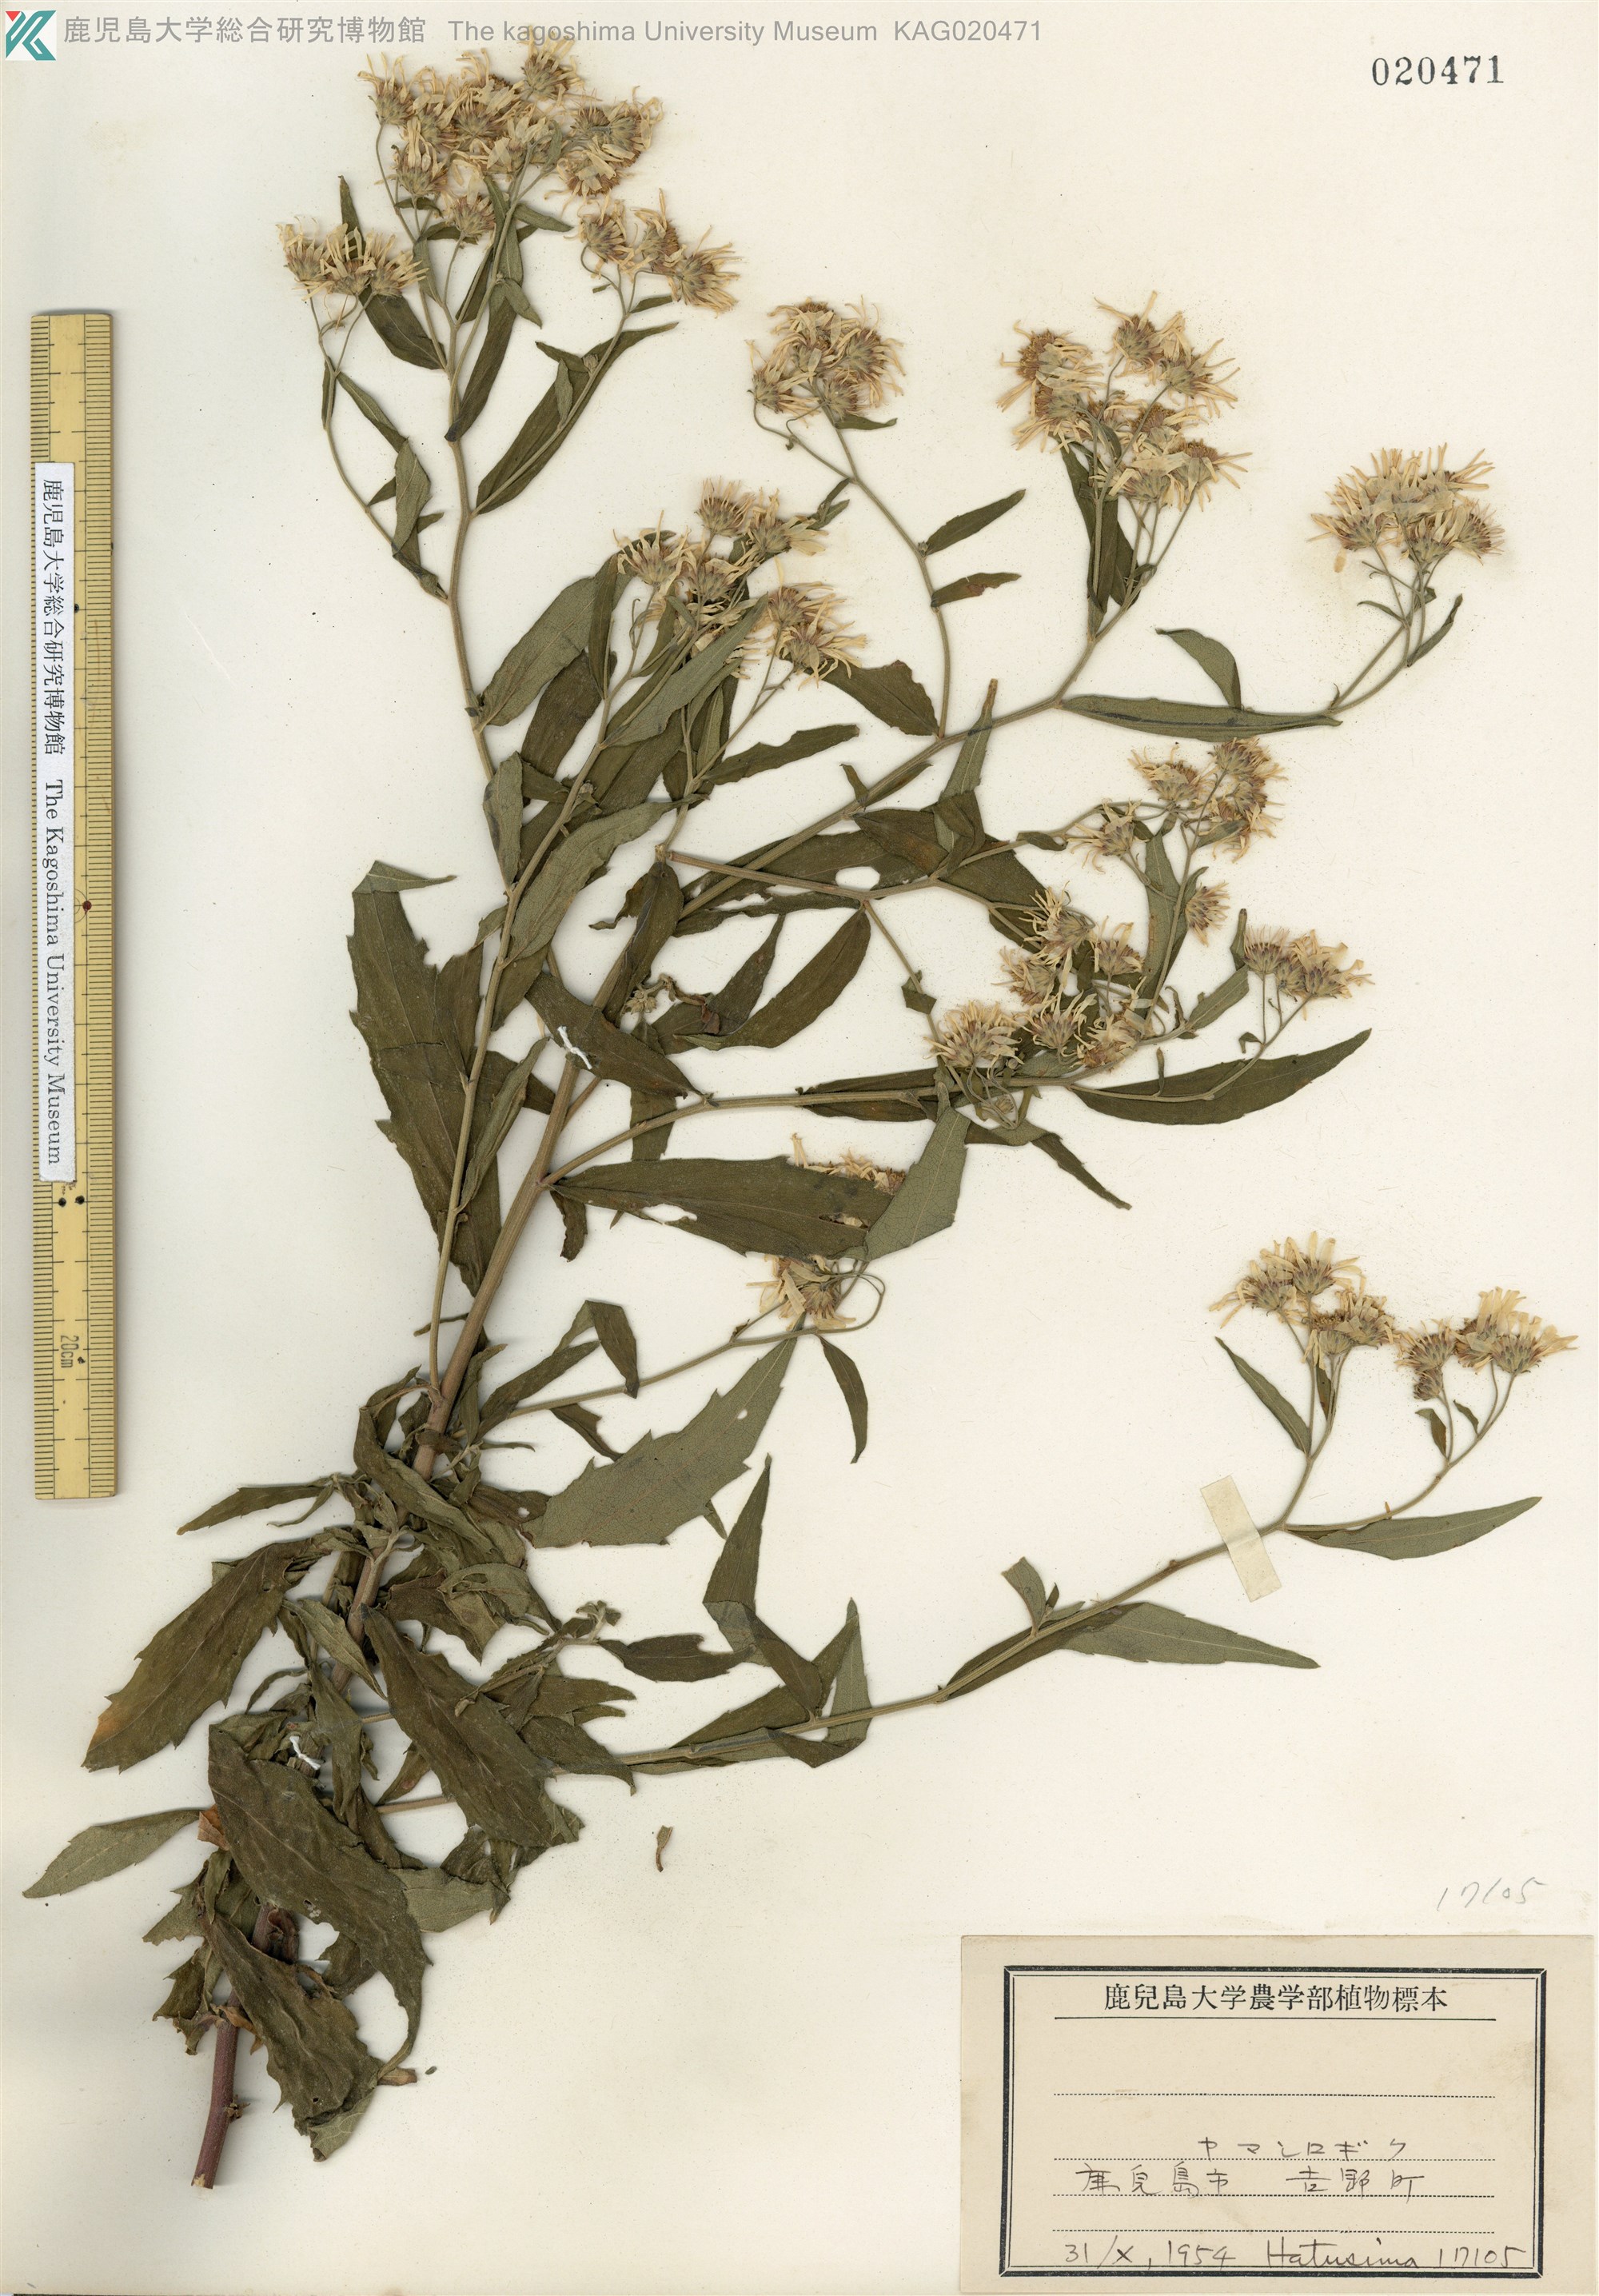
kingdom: Plantae
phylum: Tracheophyta
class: Magnoliopsida
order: Asterales
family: Asteraceae
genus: Aster
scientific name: Aster satsumensis
